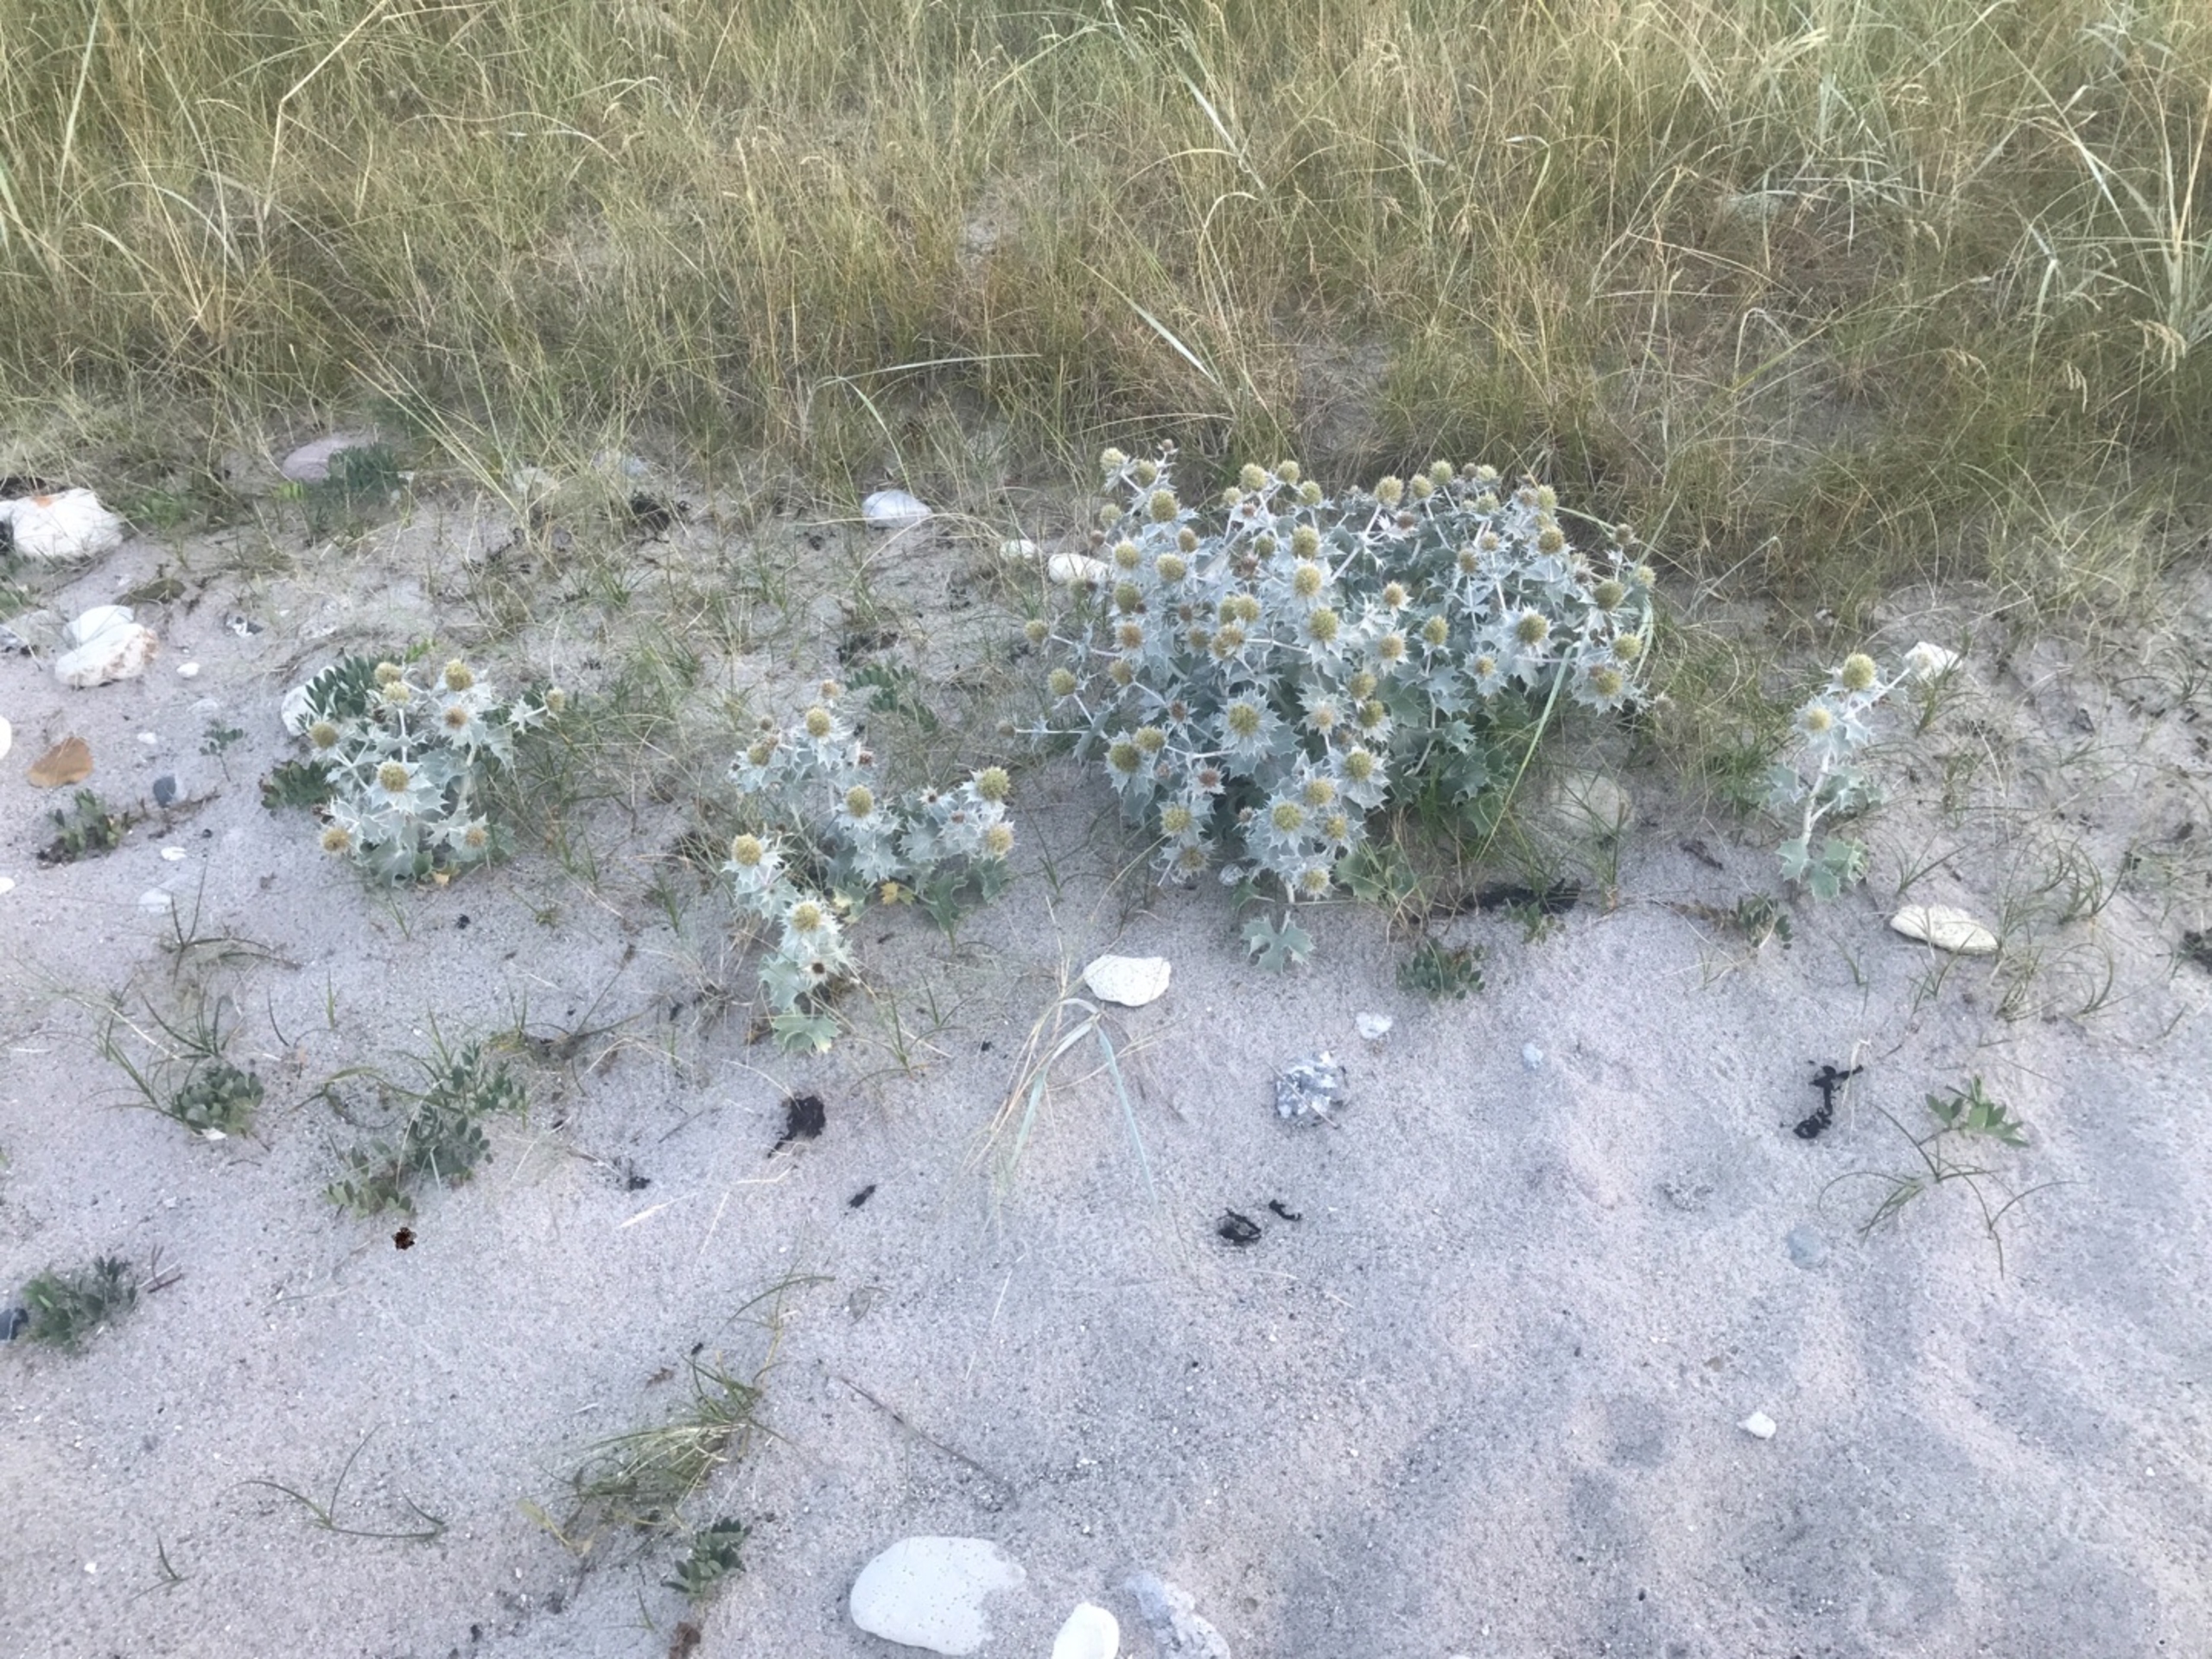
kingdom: Plantae
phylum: Tracheophyta
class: Magnoliopsida
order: Apiales
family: Apiaceae
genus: Eryngium
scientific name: Eryngium maritimum
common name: Strand-mandstro
